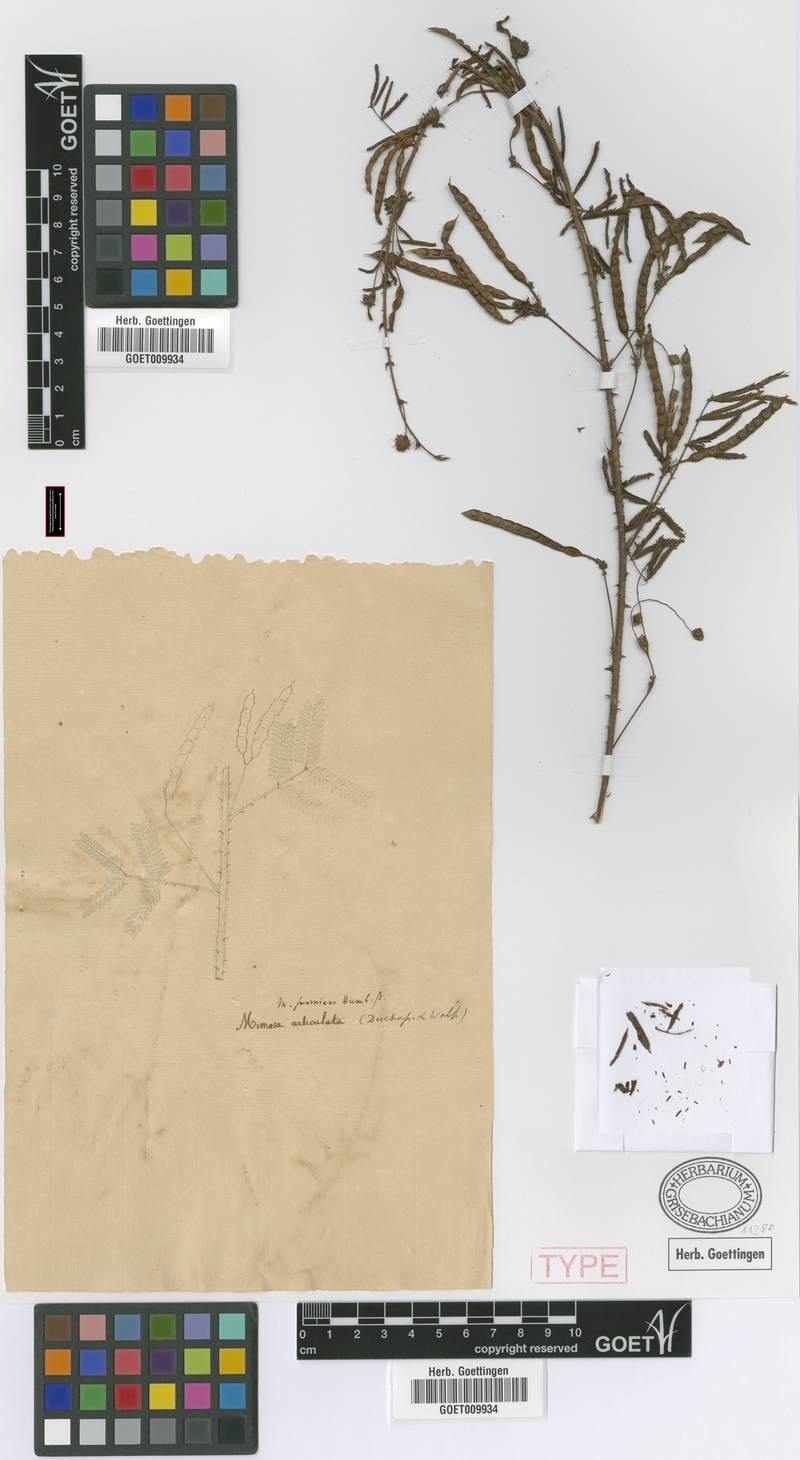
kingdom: Plantae
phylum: Tracheophyta
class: Magnoliopsida
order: Fabales
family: Fabaceae
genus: Mimosa
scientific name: Mimosa somnians
